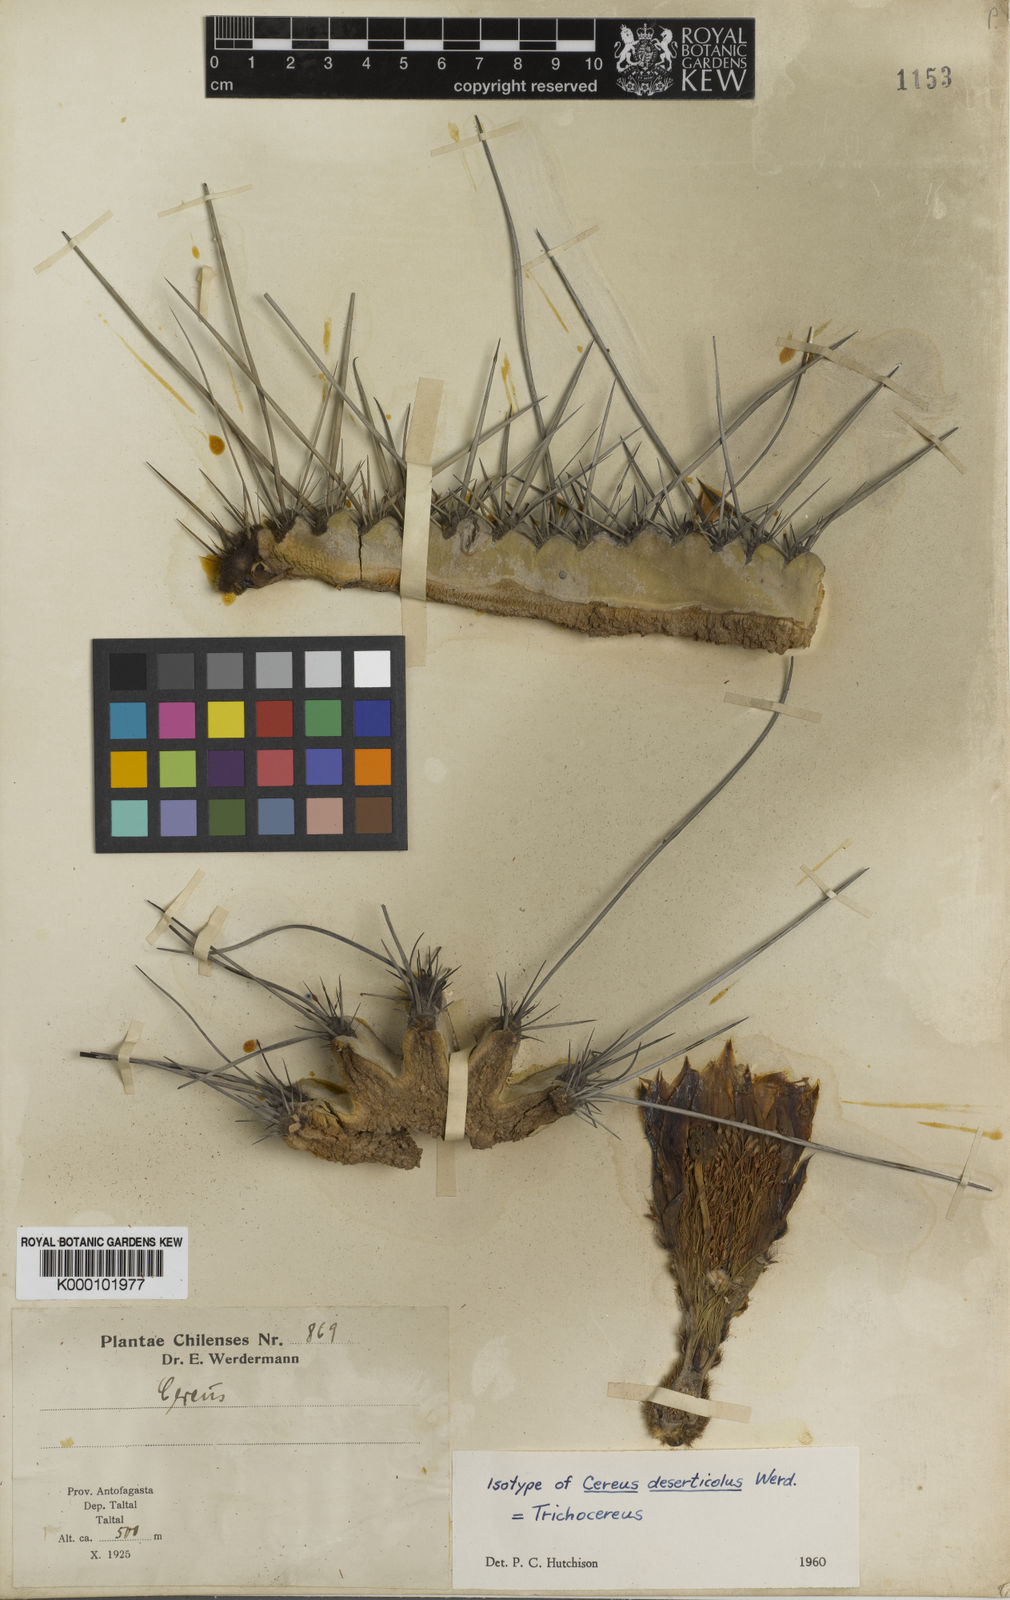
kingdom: Plantae
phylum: Tracheophyta
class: Magnoliopsida
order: Caryophyllales
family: Cactaceae
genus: Leucostele
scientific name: Leucostele deserticola
